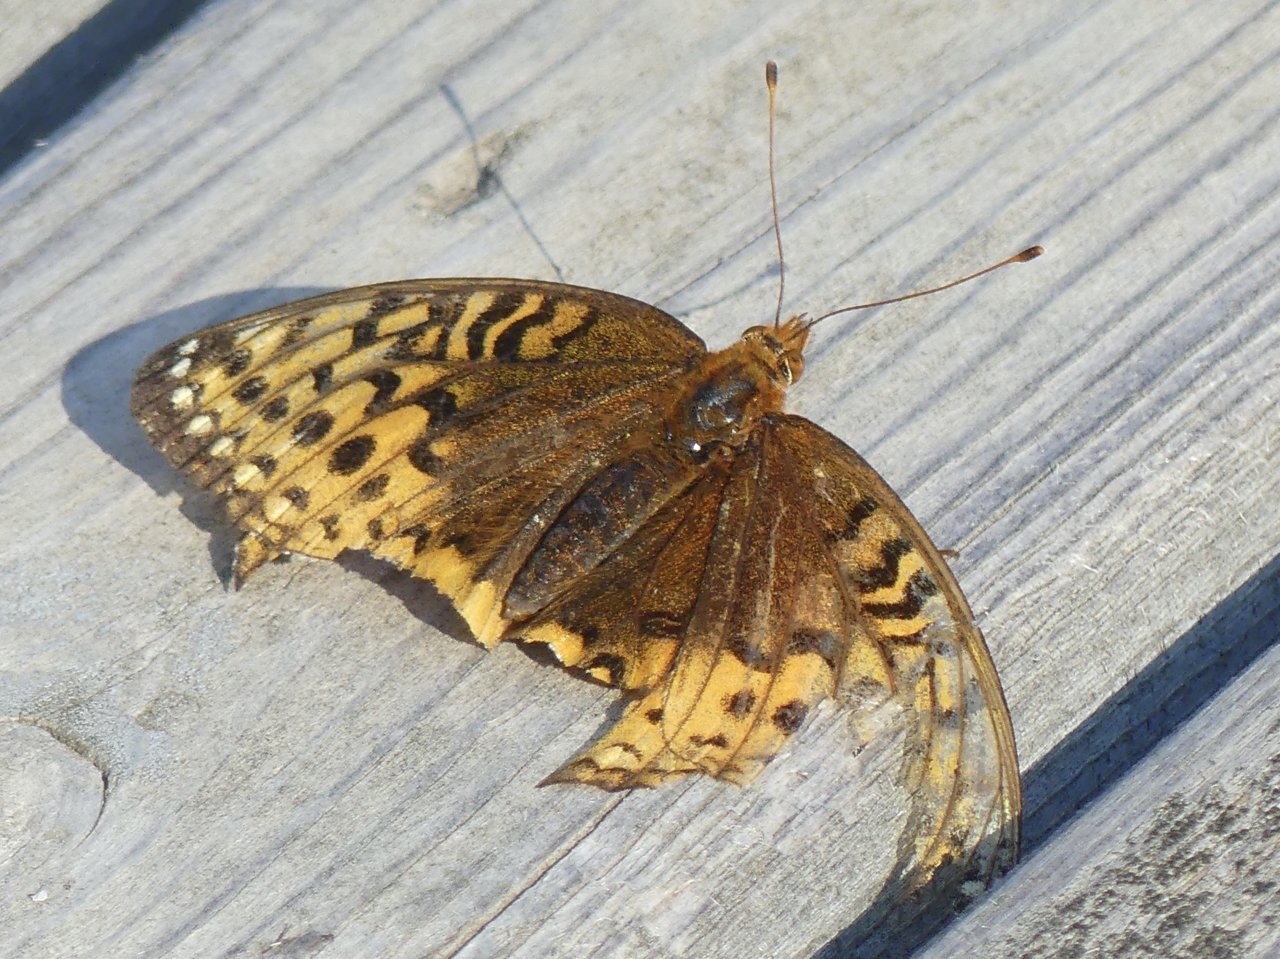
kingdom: Animalia
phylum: Arthropoda
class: Insecta
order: Lepidoptera
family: Nymphalidae
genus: Speyeria
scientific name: Speyeria cybele
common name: Great Spangled Fritillary
